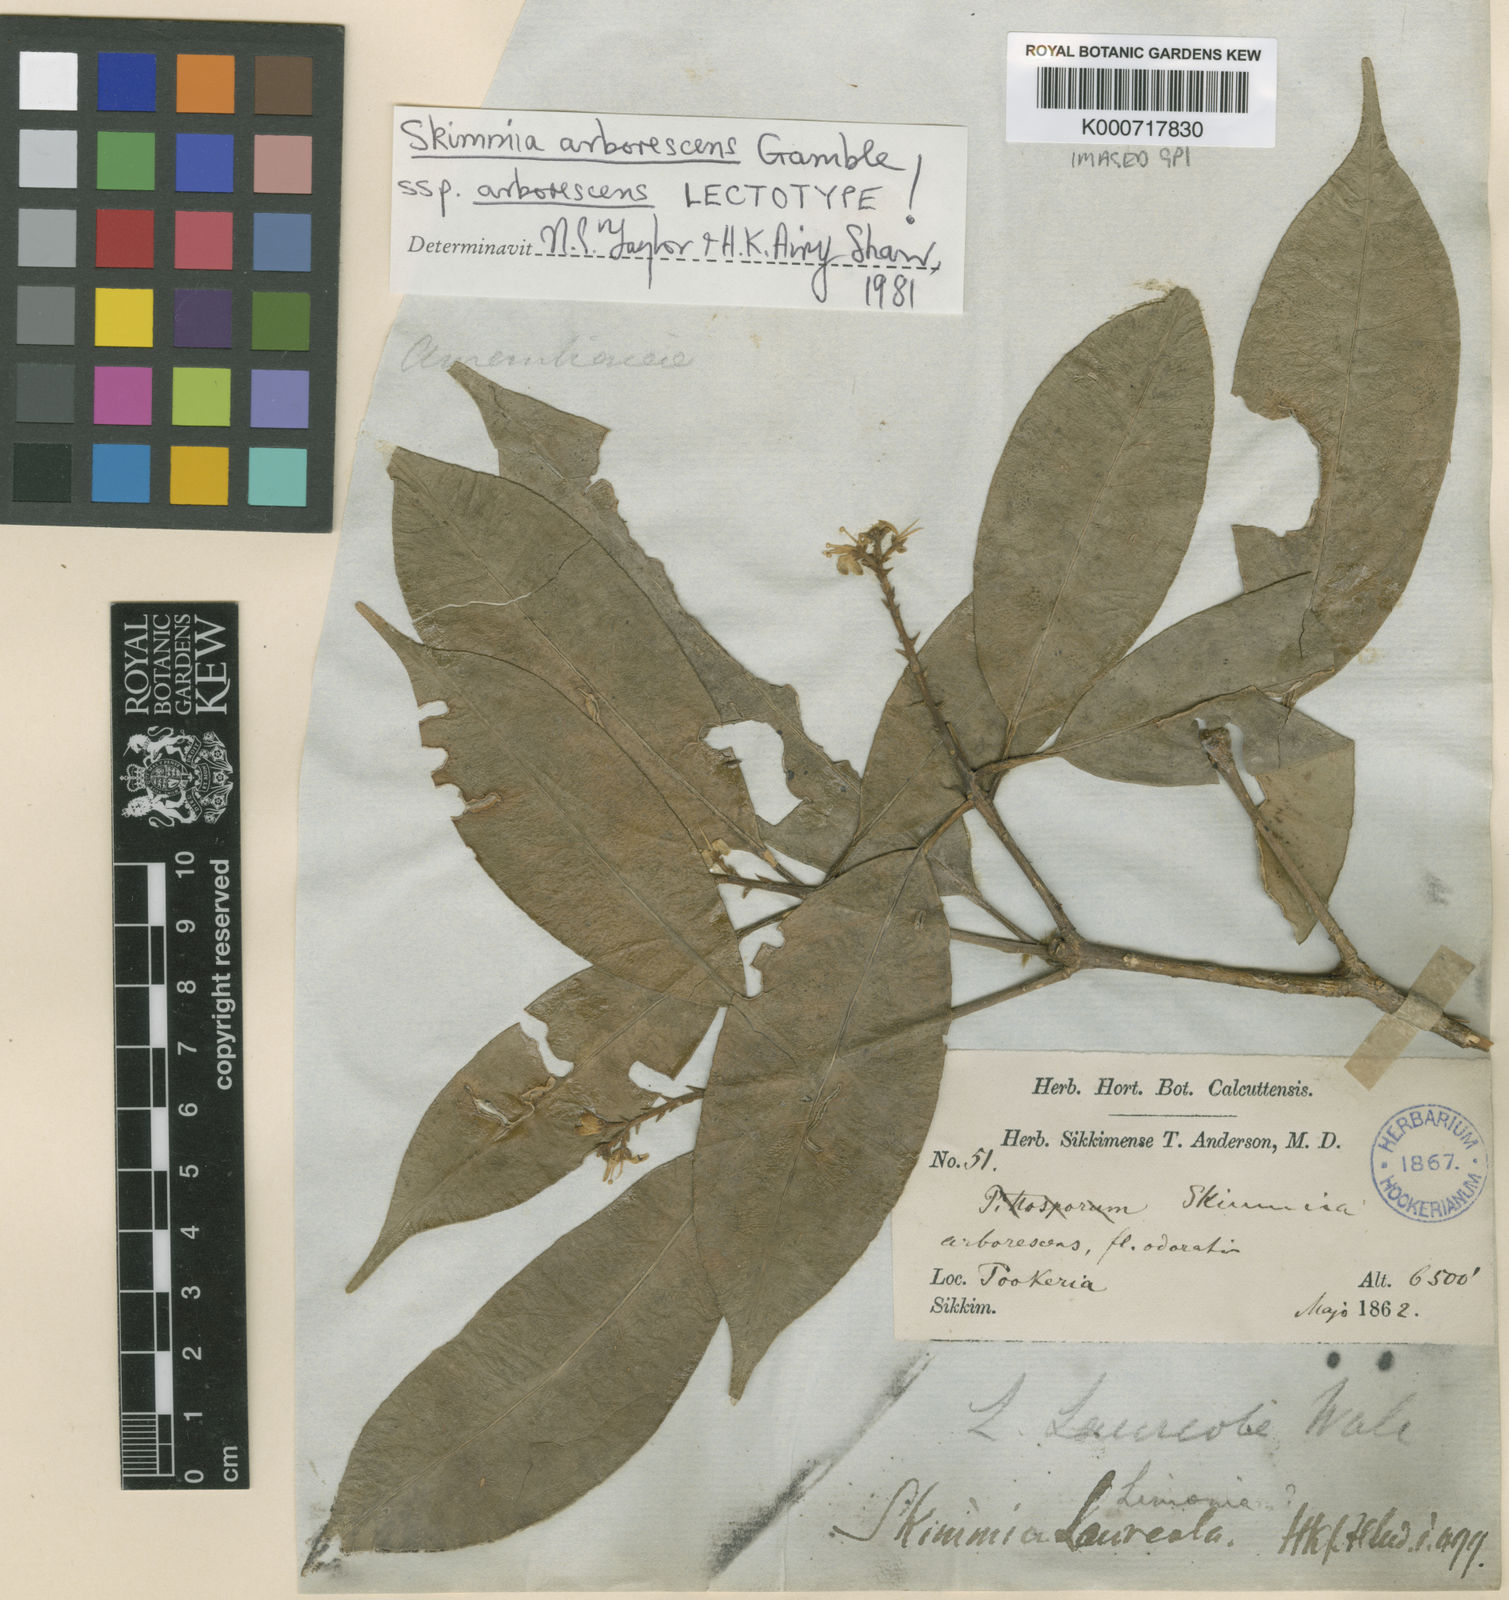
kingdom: Plantae
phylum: Tracheophyta
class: Magnoliopsida
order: Sapindales
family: Rutaceae
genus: Skimmia
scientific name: Skimmia arborescens
